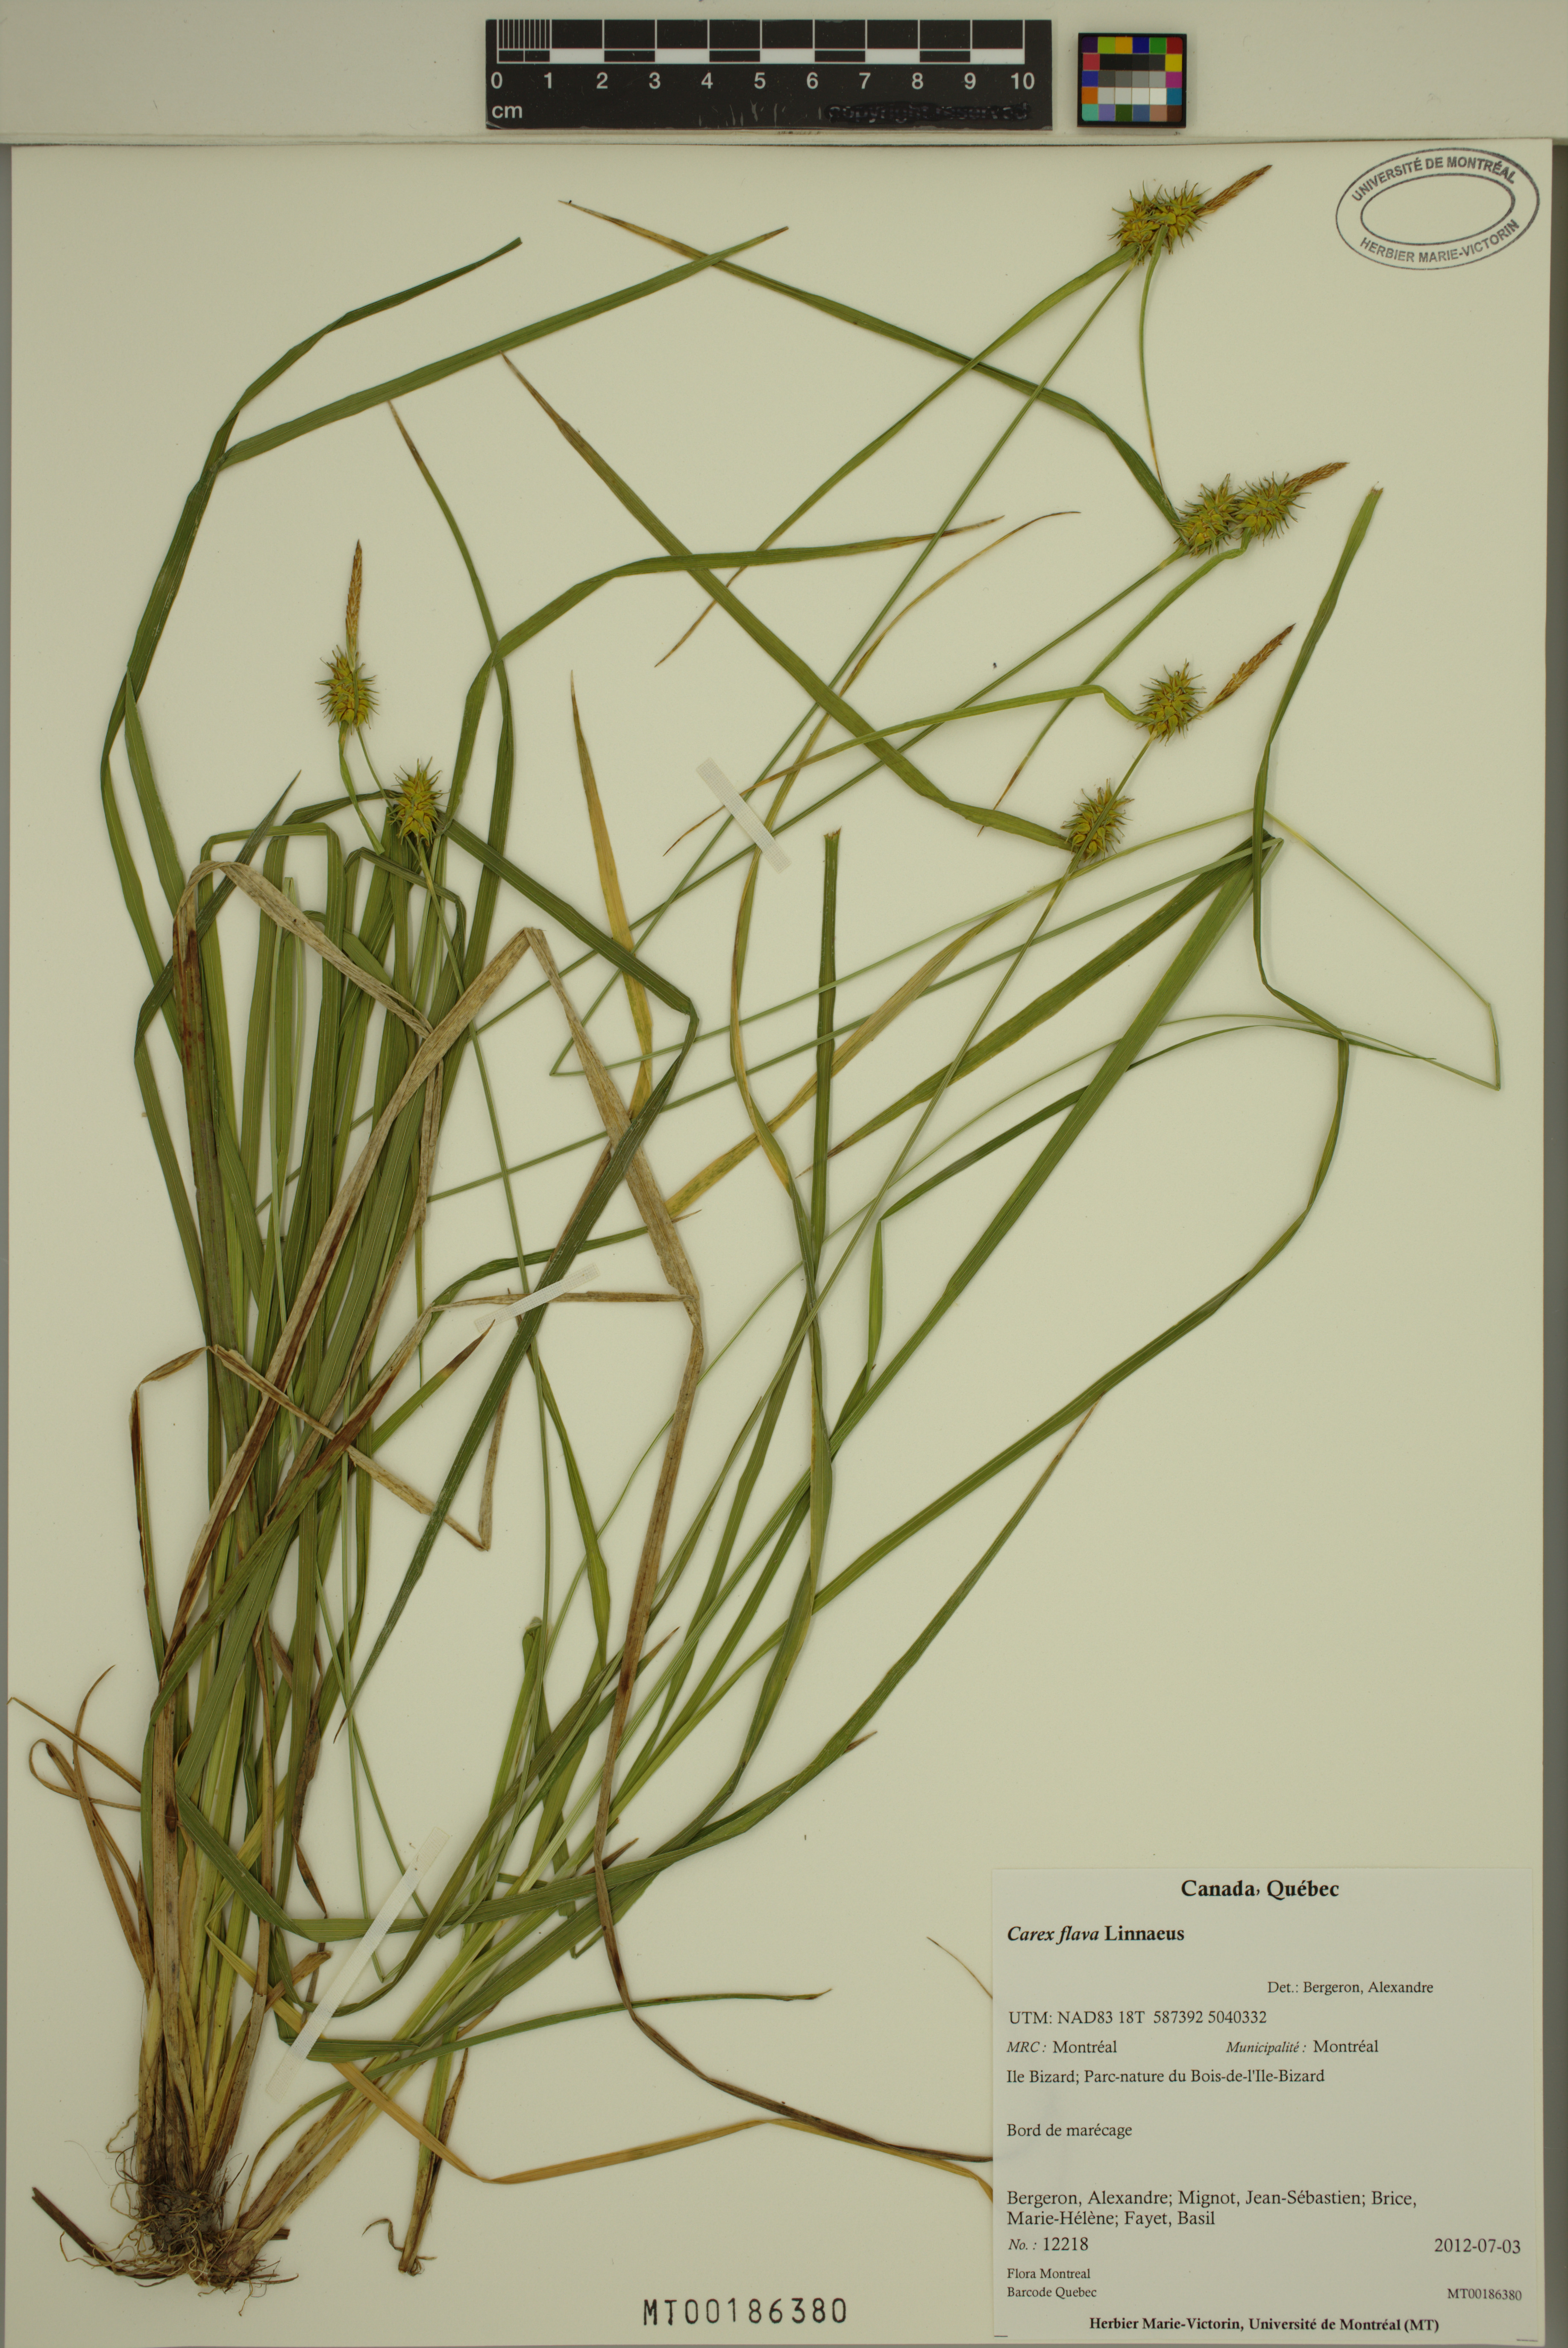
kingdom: Plantae
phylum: Tracheophyta
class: Liliopsida
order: Poales
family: Cyperaceae
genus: Carex
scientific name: Carex flava
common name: Large yellow-sedge
